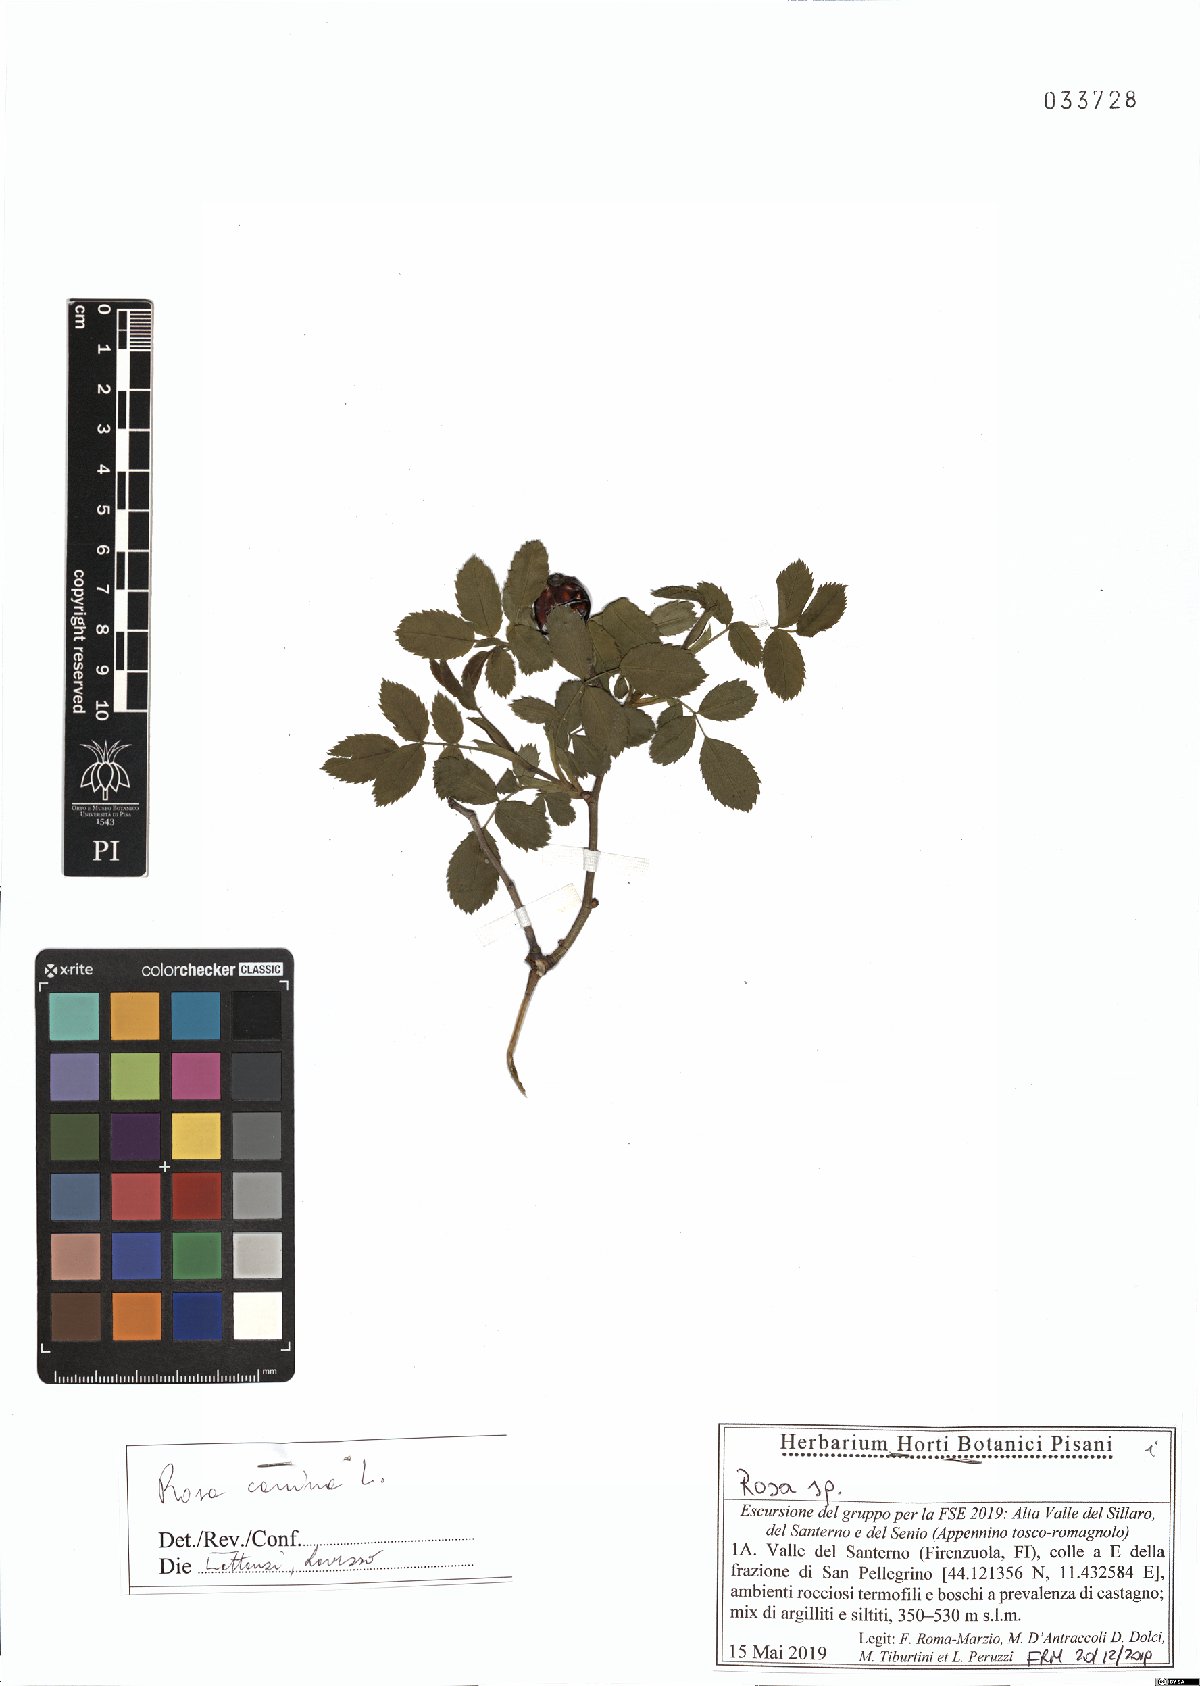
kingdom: Plantae
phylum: Tracheophyta
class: Magnoliopsida
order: Rosales
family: Rosaceae
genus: Rosa
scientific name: Rosa canina
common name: Dog rose
